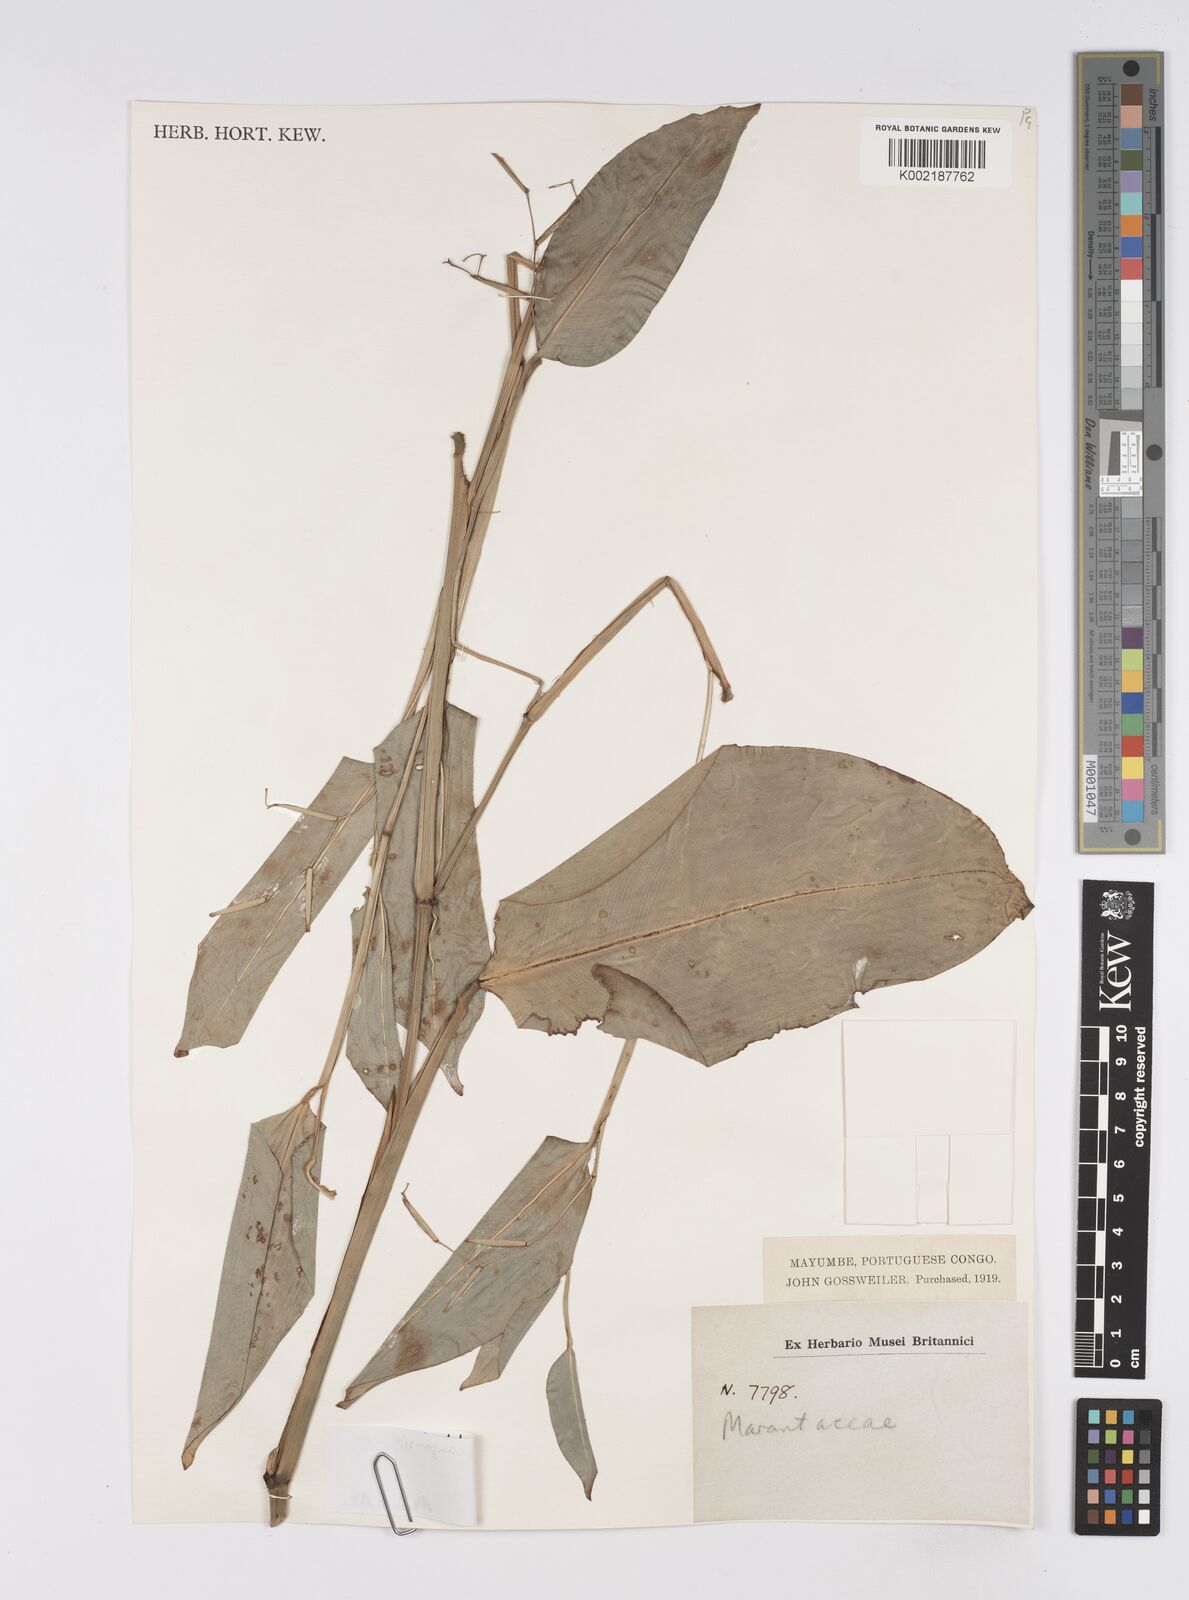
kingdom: Plantae
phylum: Tracheophyta
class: Liliopsida
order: Zingiberales
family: Marantaceae
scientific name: Marantaceae
